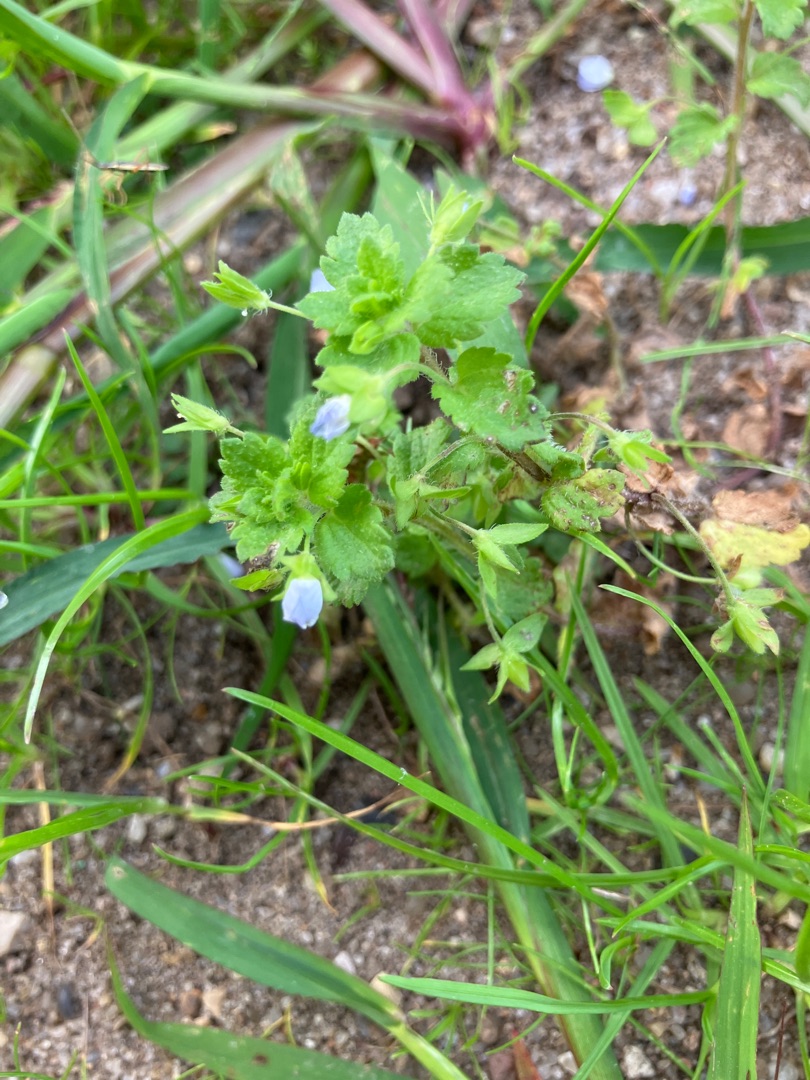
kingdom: Plantae
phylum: Tracheophyta
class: Magnoliopsida
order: Lamiales
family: Plantaginaceae
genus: Veronica
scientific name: Veronica persica
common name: Storkronet ærenpris
